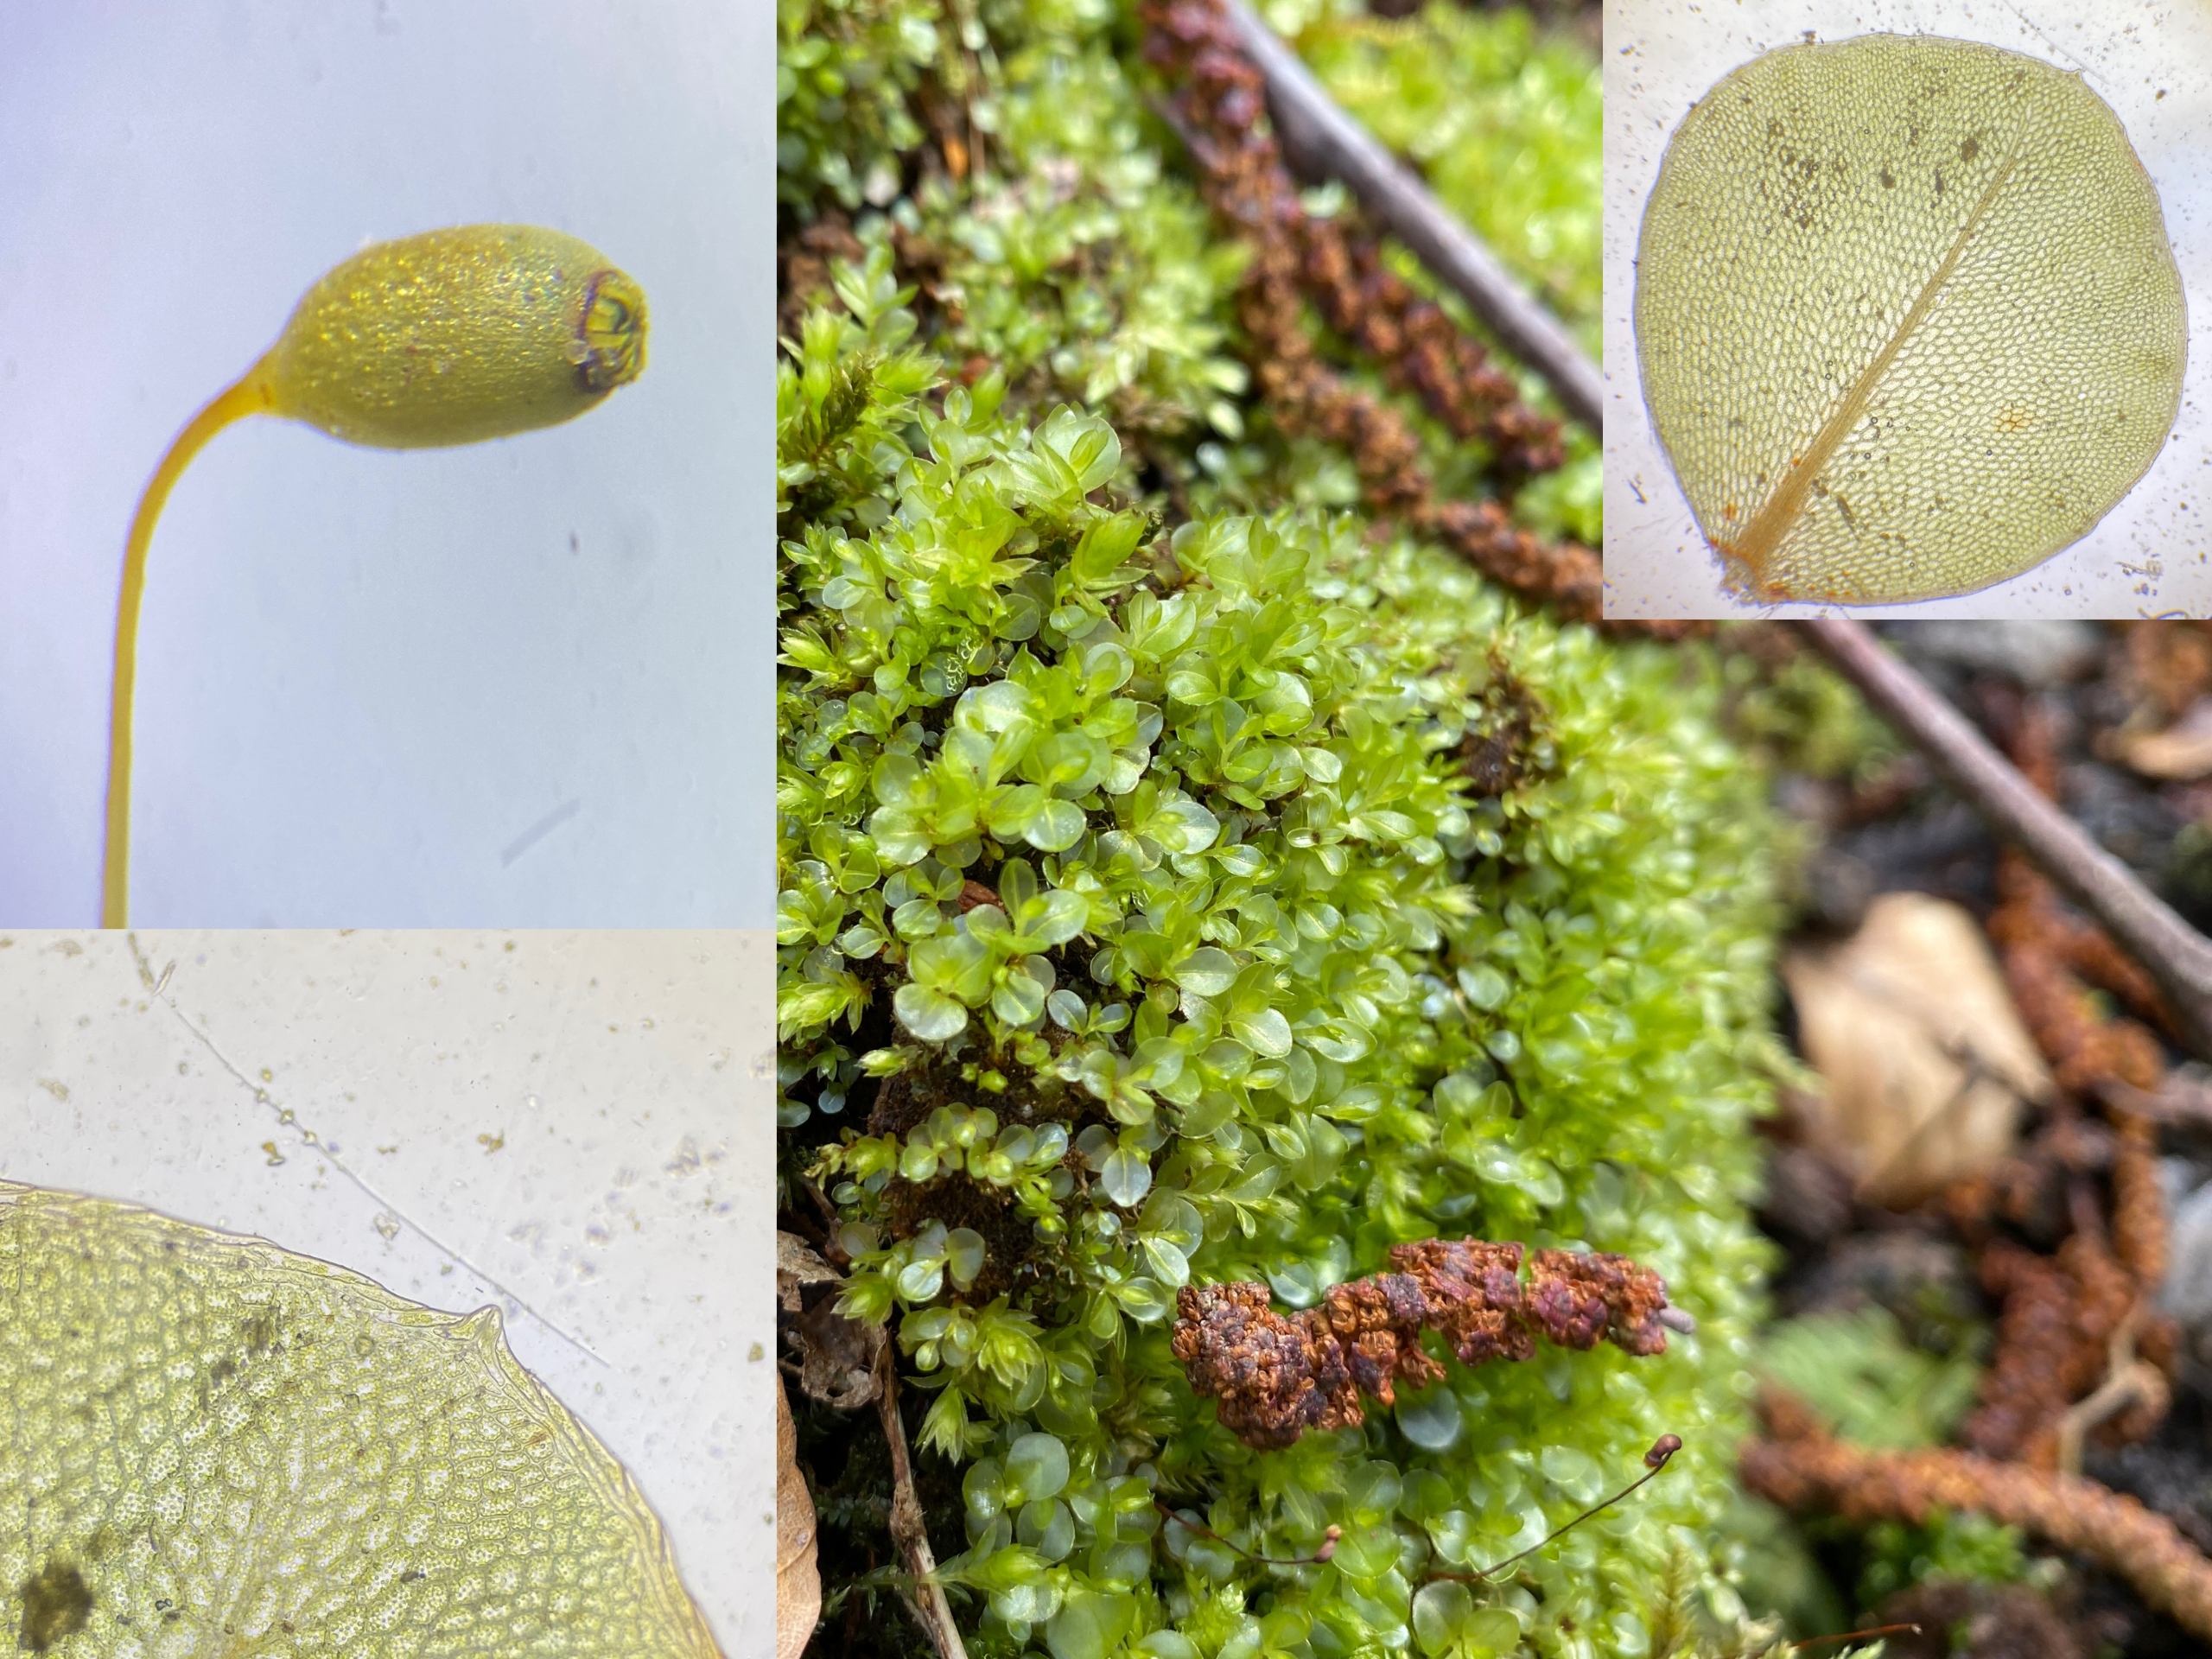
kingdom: Plantae
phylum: Bryophyta
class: Bryopsida
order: Bryales
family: Mniaceae
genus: Rhizomnium
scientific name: Rhizomnium punctatum
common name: Almindelig bredblad
